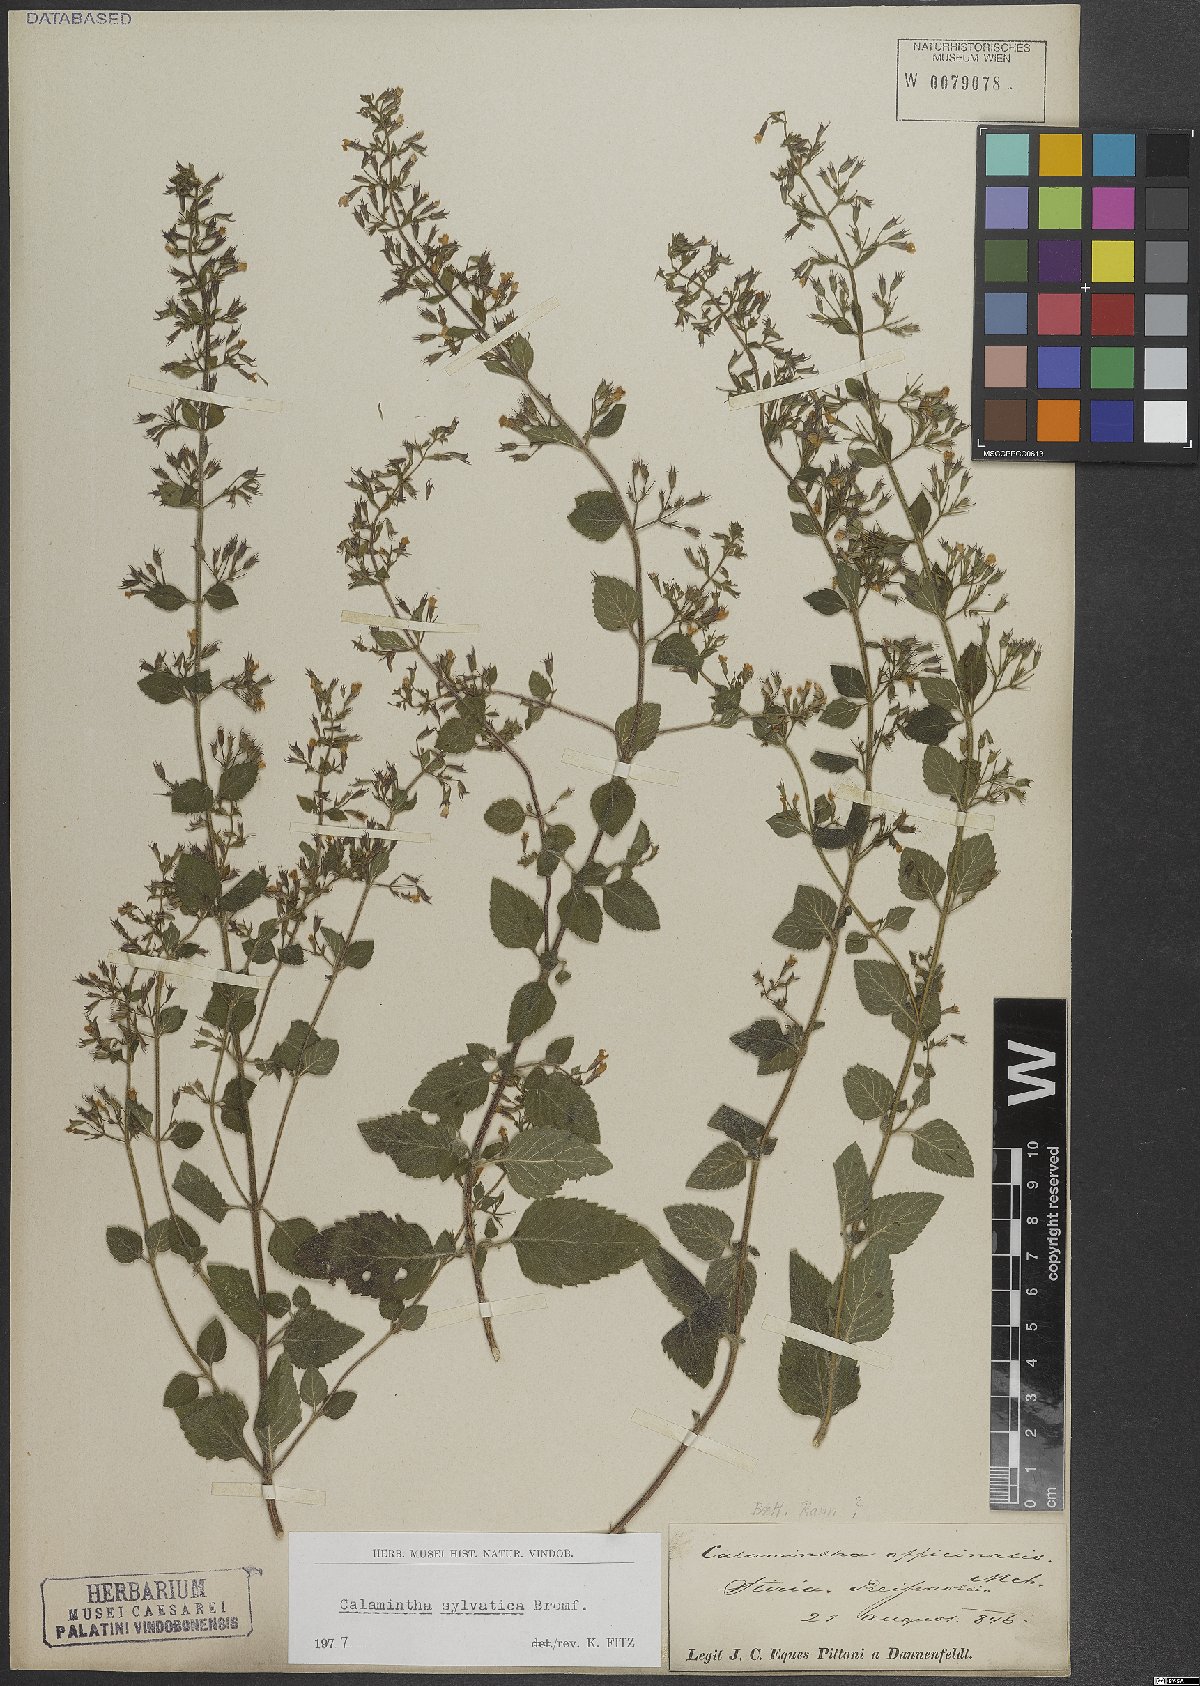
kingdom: Plantae
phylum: Tracheophyta
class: Magnoliopsida
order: Lamiales
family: Lamiaceae
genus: Clinopodium
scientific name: Clinopodium menthifolium
